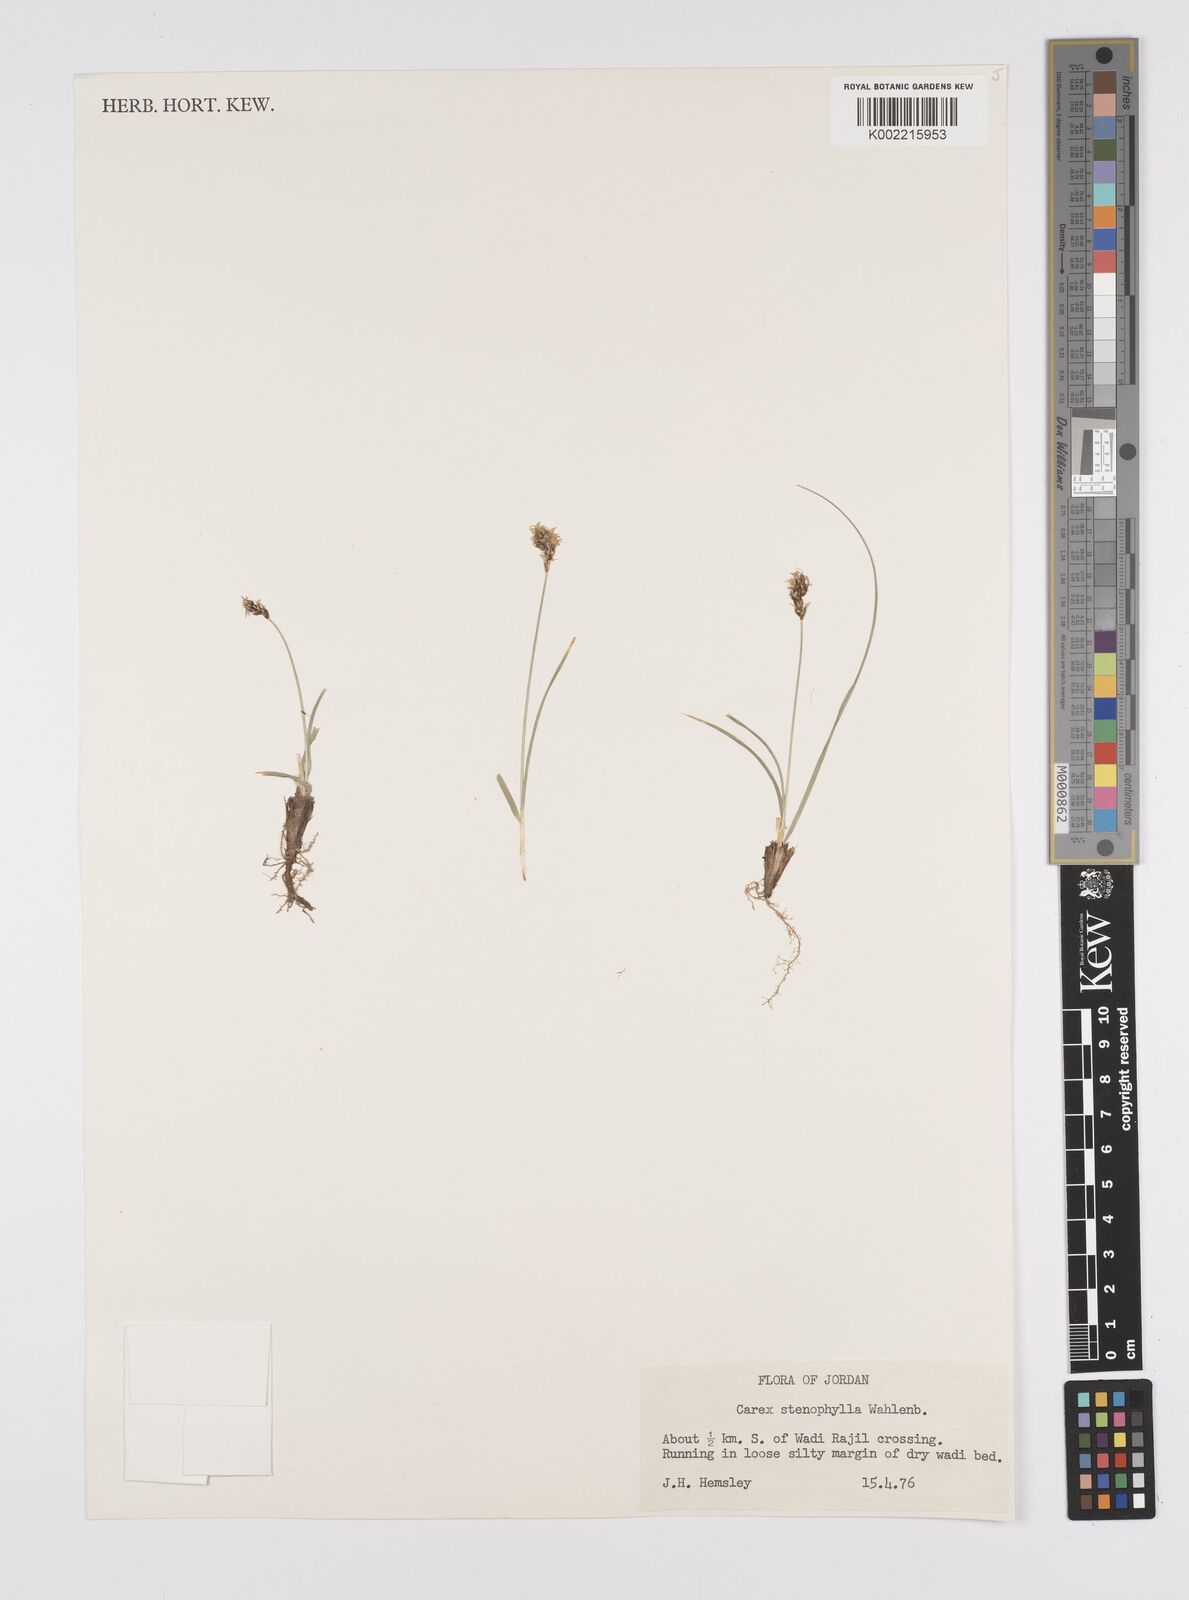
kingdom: Plantae
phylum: Tracheophyta
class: Liliopsida
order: Poales
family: Cyperaceae
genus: Carex
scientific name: Carex pachystylis
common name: Thick-stem sedge
